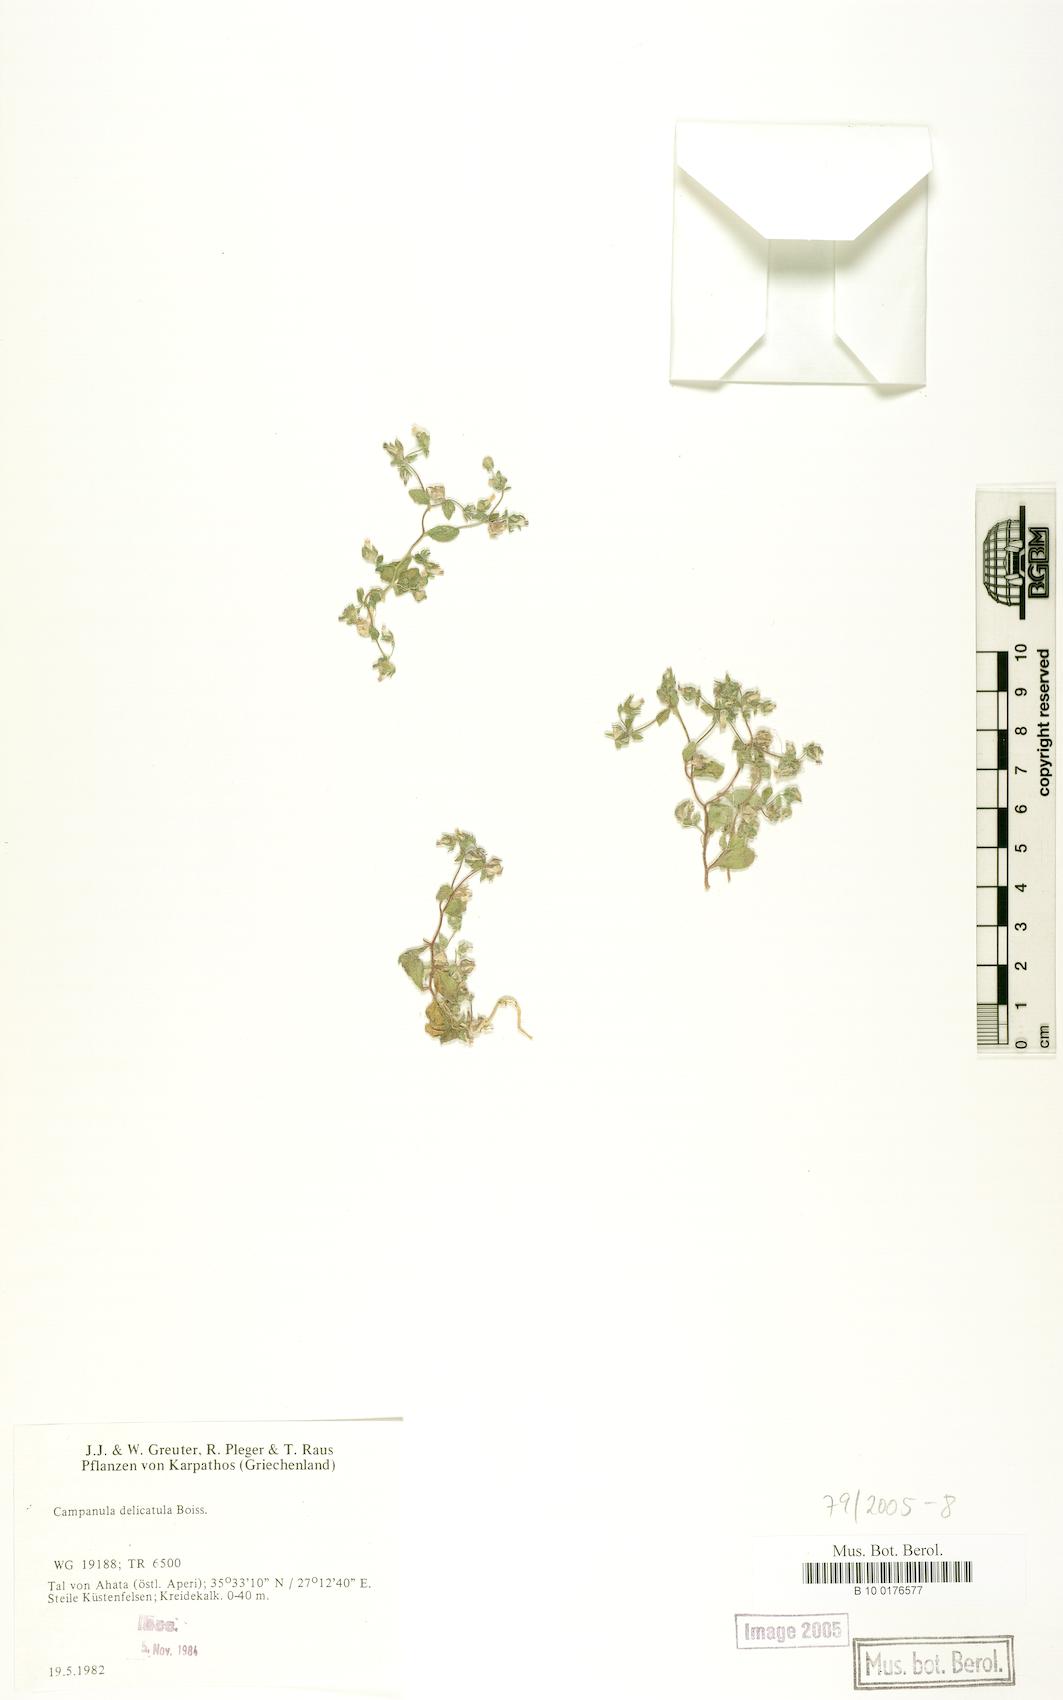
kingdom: Plantae
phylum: Tracheophyta
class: Magnoliopsida
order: Asterales
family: Campanulaceae
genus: Campanula
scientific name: Campanula delicatula
